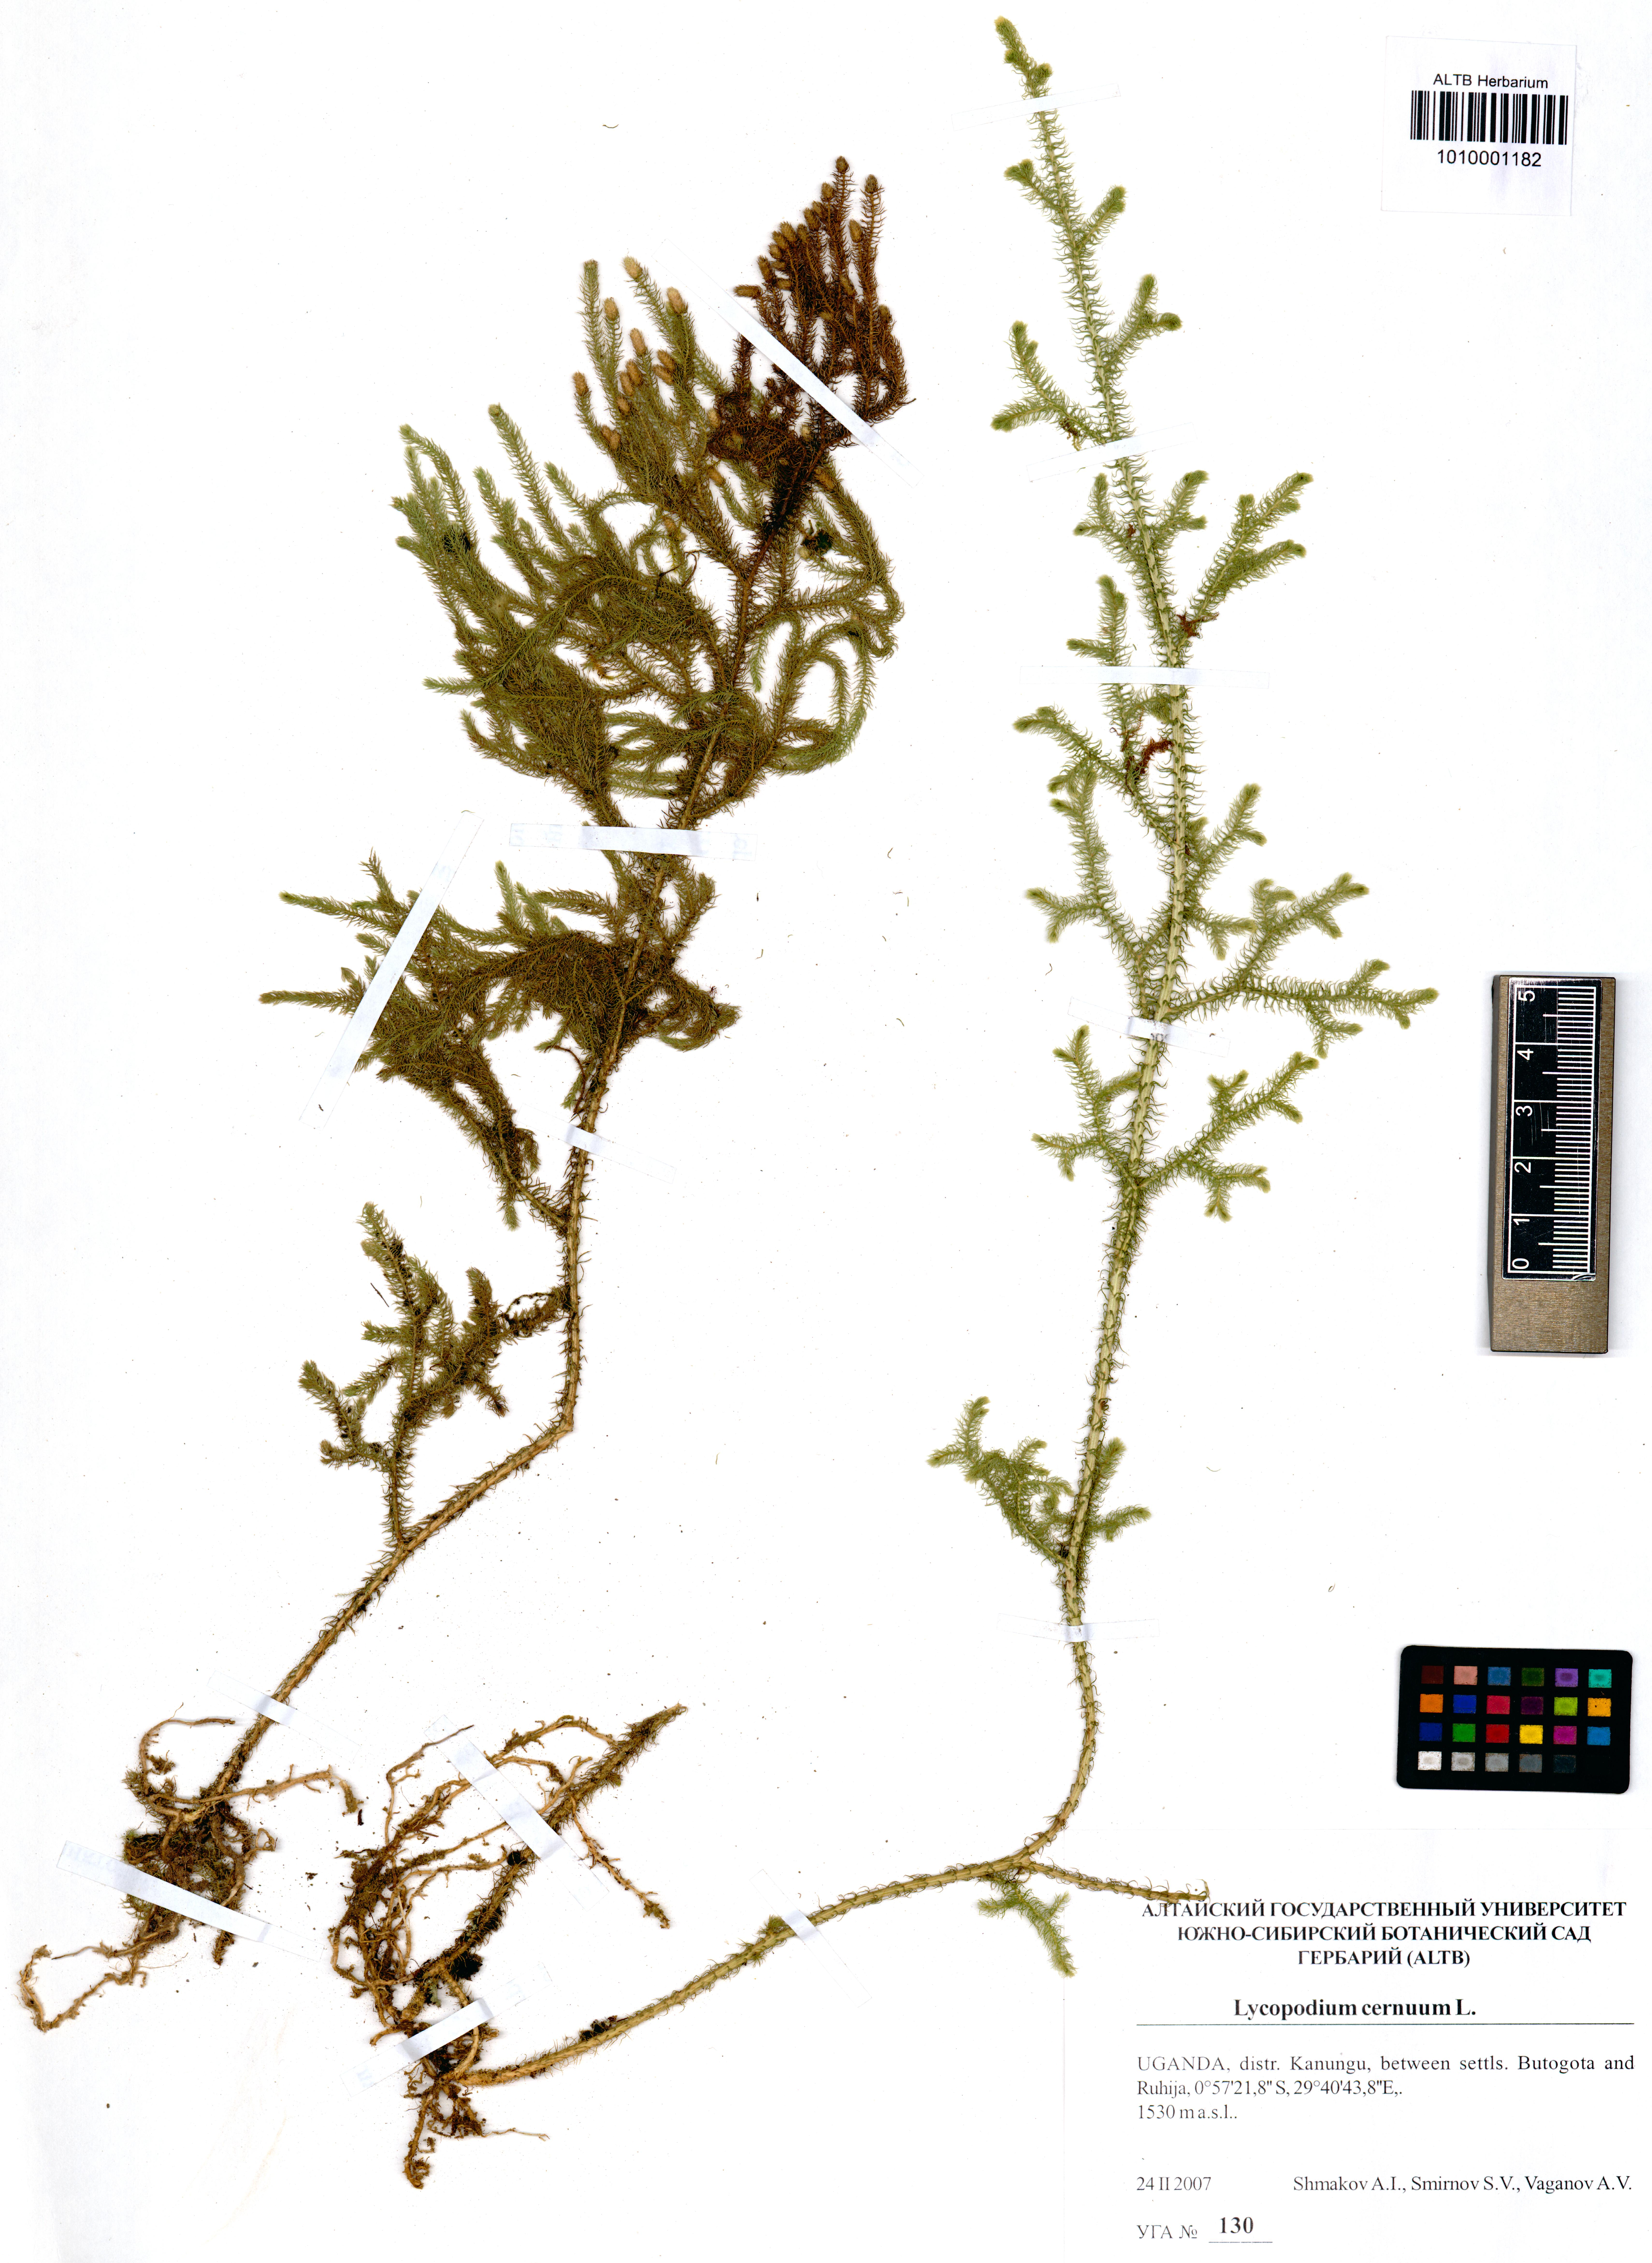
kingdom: Plantae
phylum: Tracheophyta
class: Lycopodiopsida
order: Lycopodiales
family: Lycopodiaceae
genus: Palhinhaea
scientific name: Palhinhaea cernua
